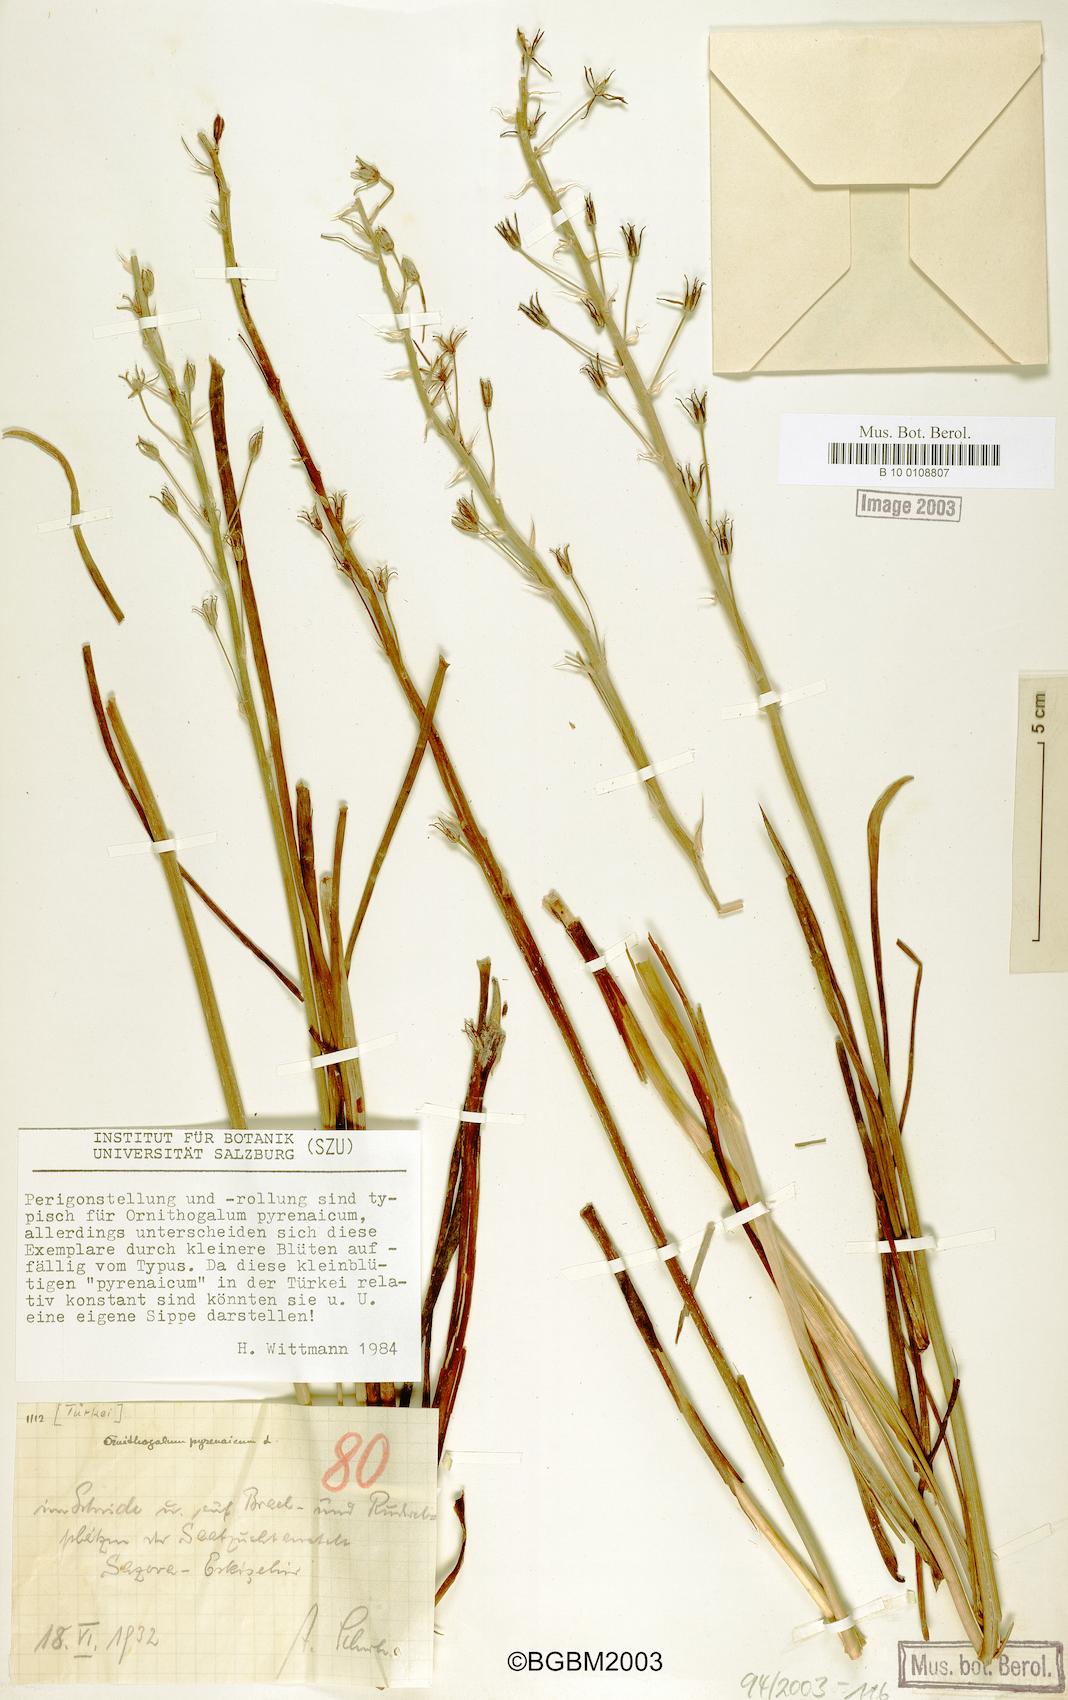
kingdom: Plantae
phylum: Tracheophyta
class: Liliopsida
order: Asparagales
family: Asparagaceae
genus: Ornithogalum
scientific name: Ornithogalum pyrenaicum
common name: Spiked star-of-bethlehem
